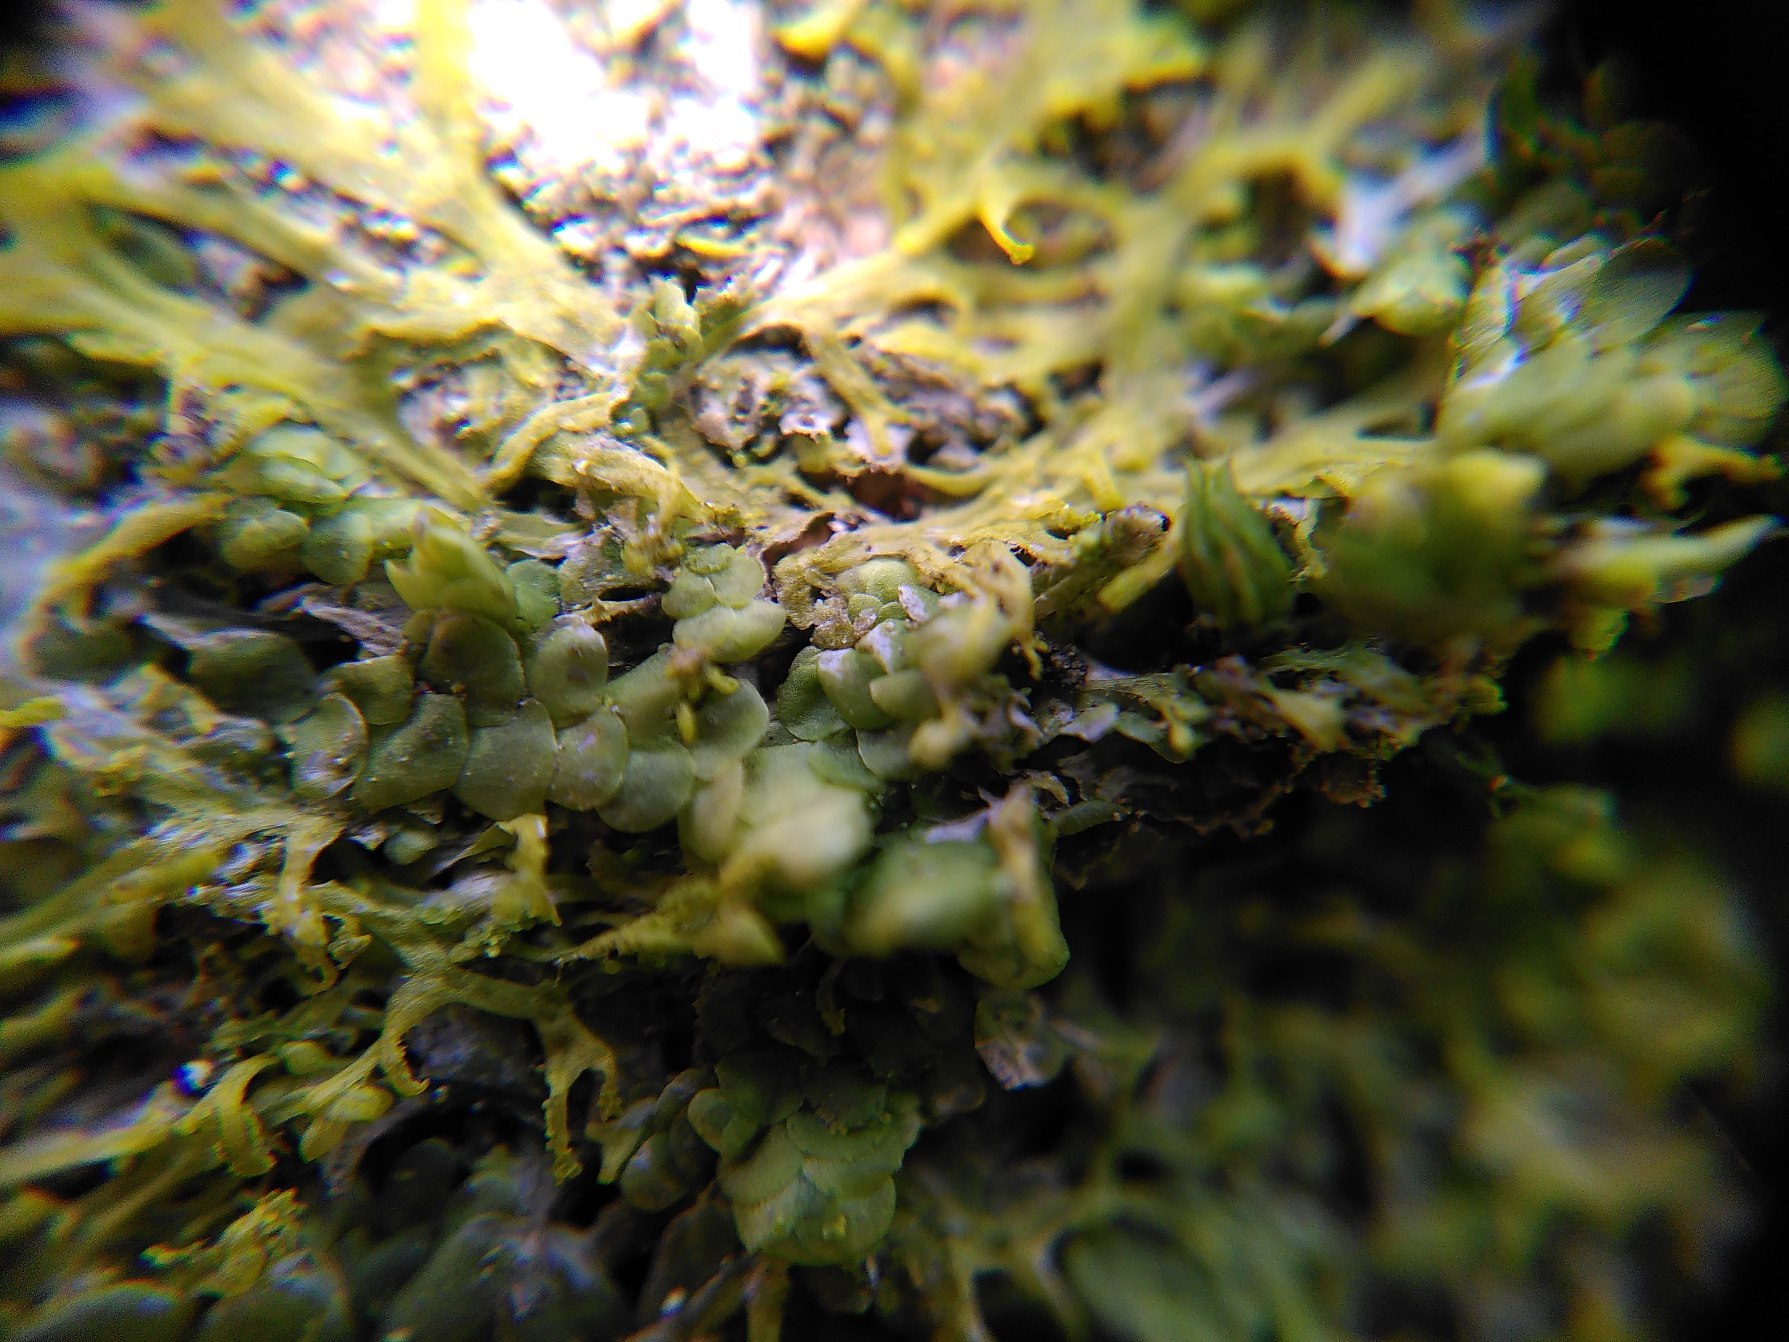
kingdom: Plantae
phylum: Marchantiophyta
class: Jungermanniopsida
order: Porellales
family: Radulaceae
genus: Radula
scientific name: Radula complanata
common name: Almindelig spartelmos
